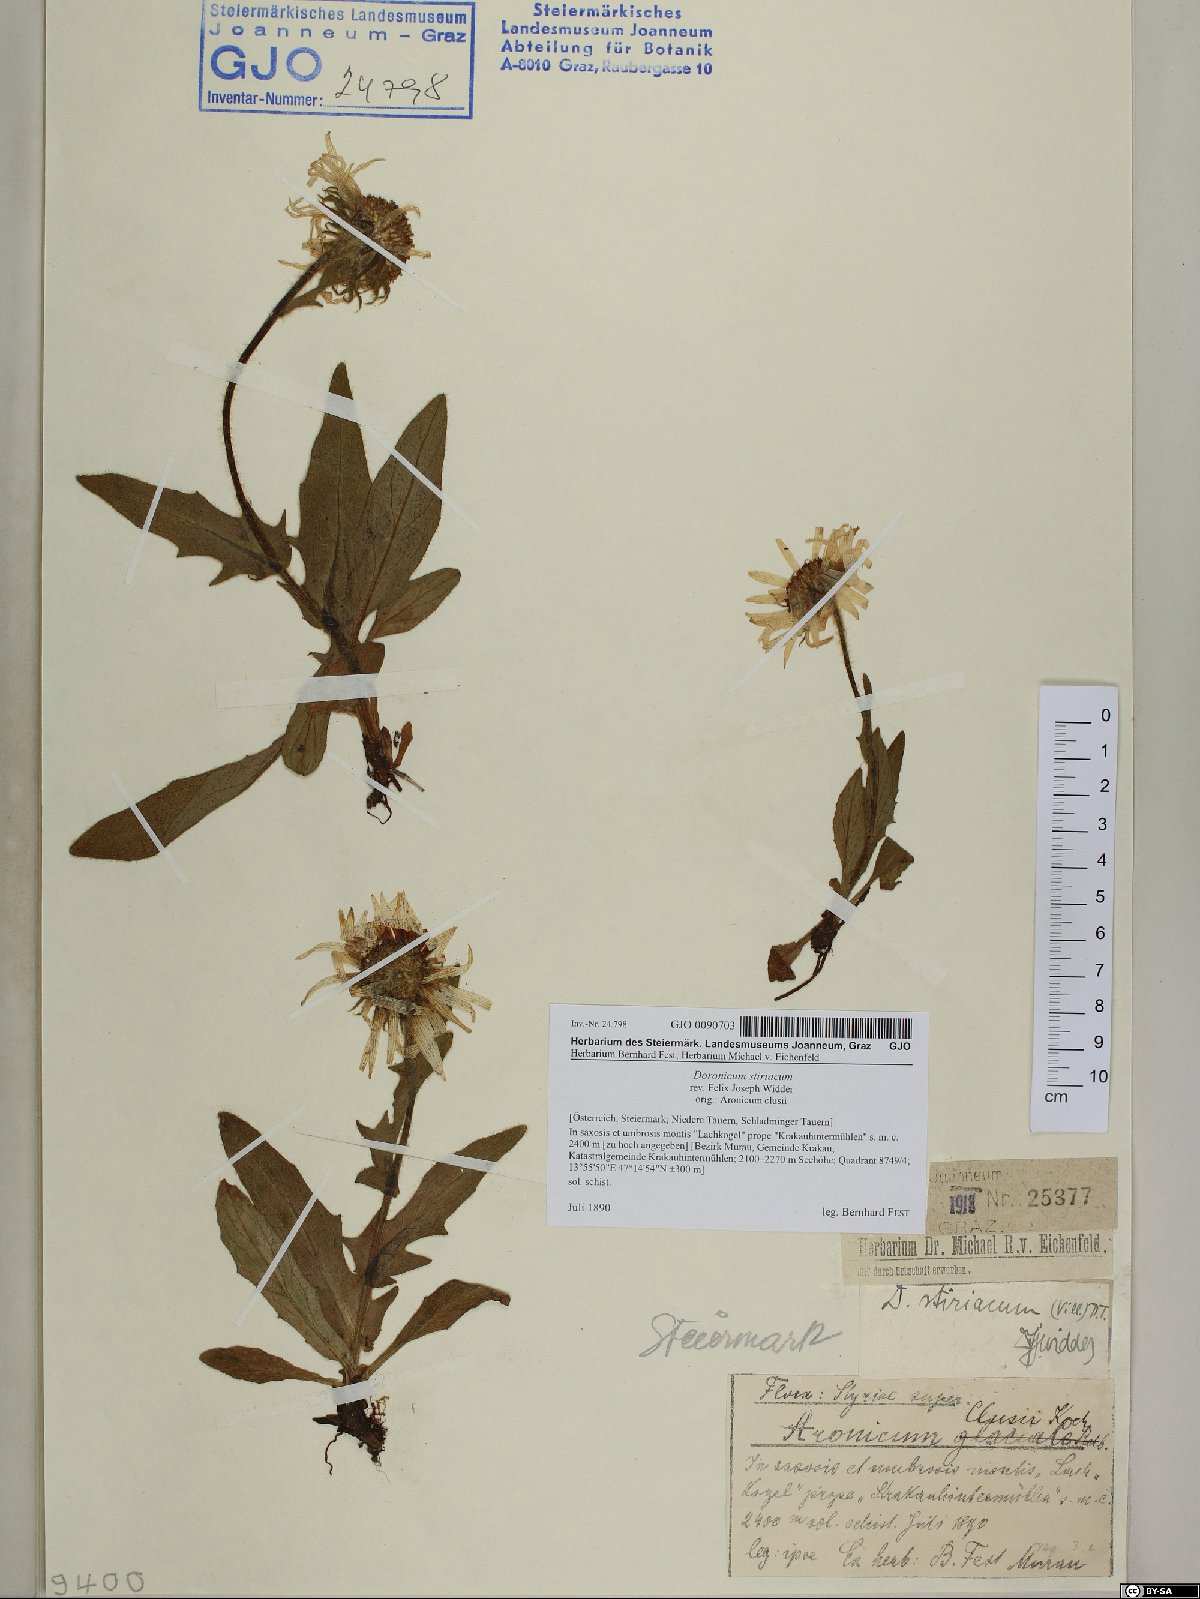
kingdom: Plantae
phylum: Tracheophyta
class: Magnoliopsida
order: Asterales
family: Asteraceae
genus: Doronicum
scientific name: Doronicum clusii
